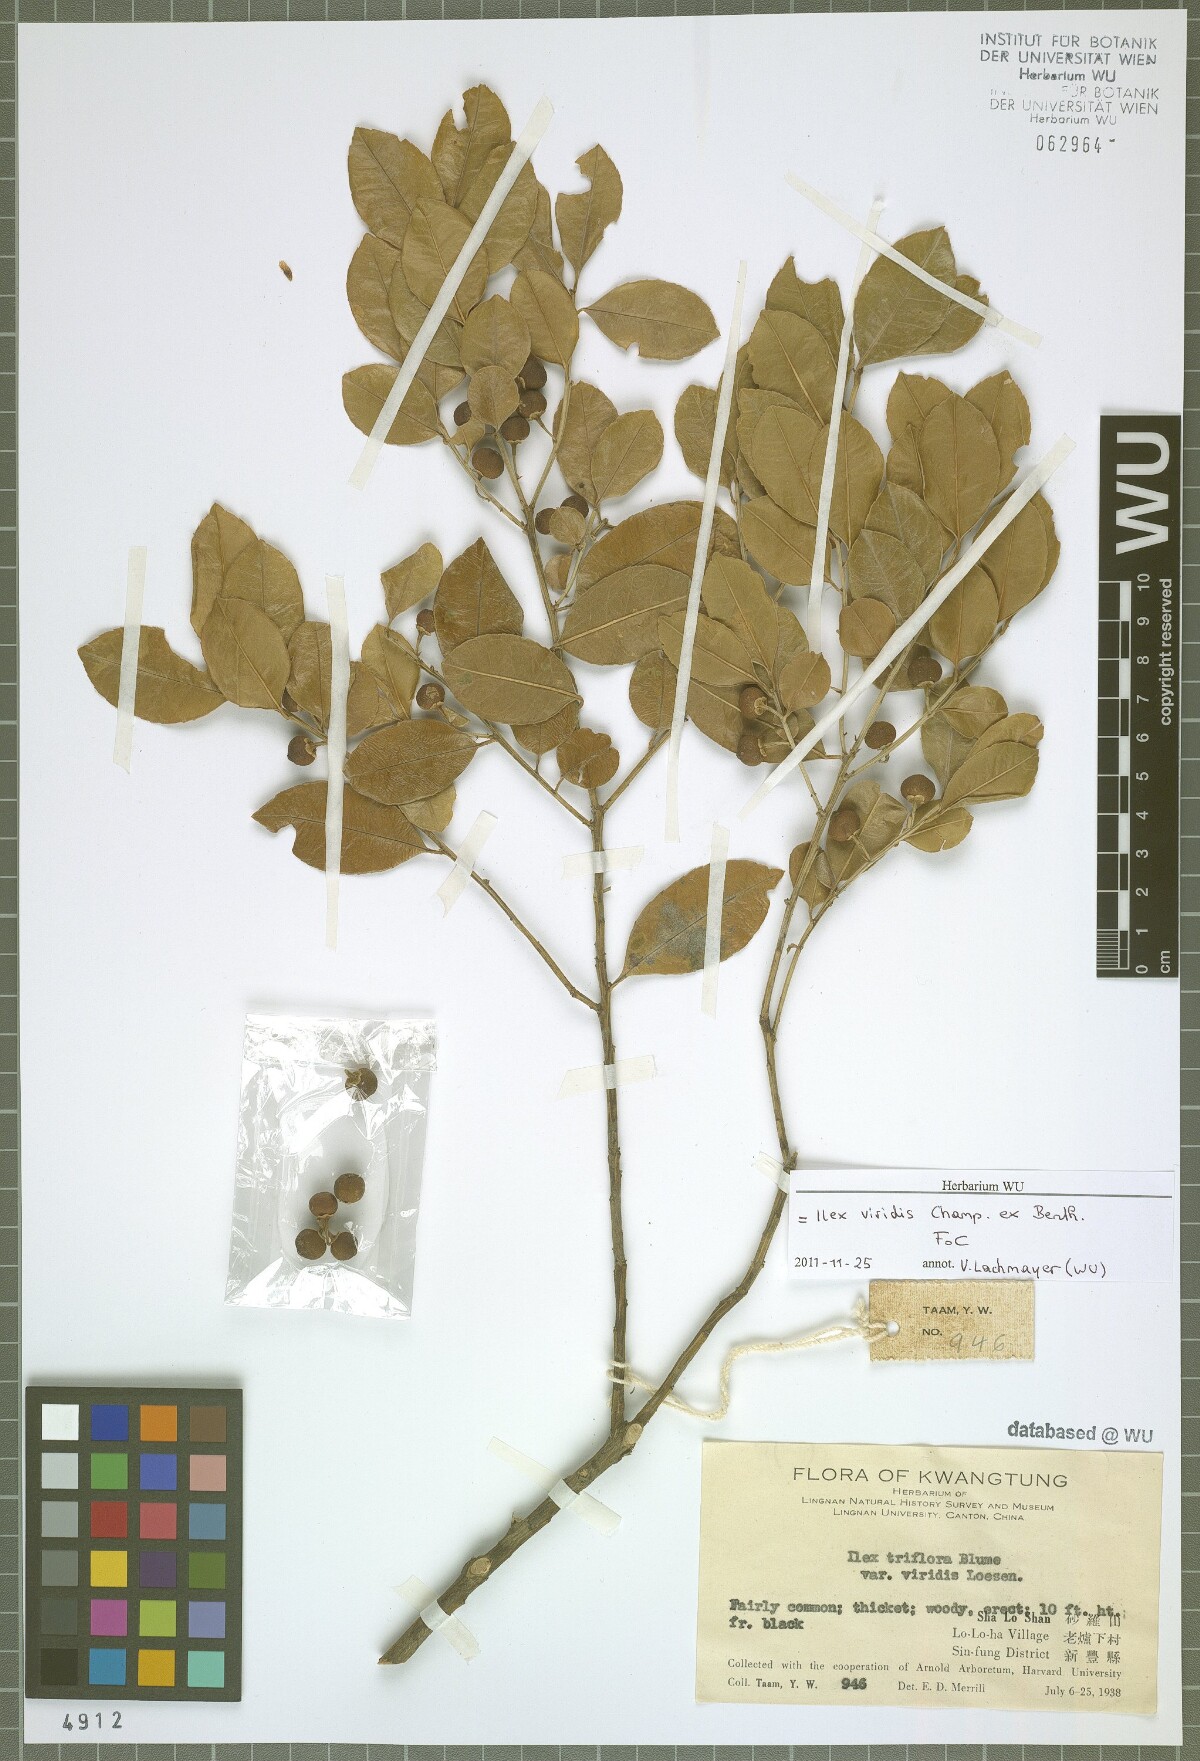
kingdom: Plantae
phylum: Tracheophyta
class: Magnoliopsida
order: Aquifoliales
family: Aquifoliaceae
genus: Ilex
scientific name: Ilex viridis
